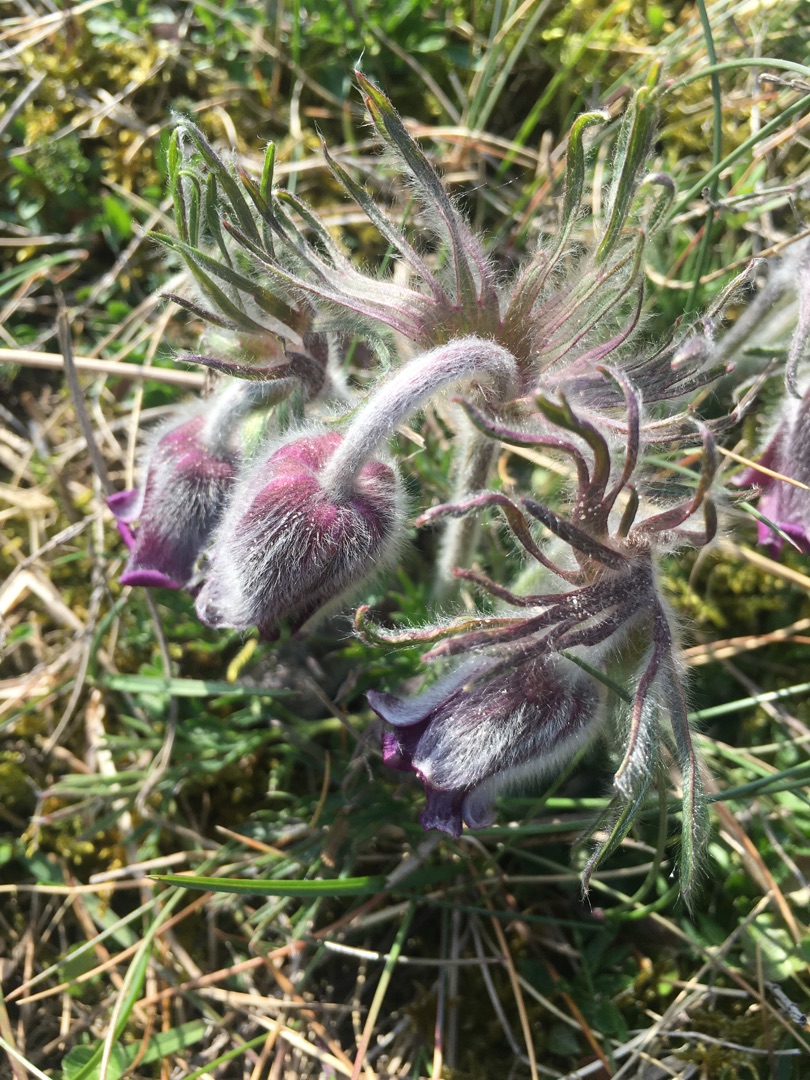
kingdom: Plantae
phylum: Tracheophyta
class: Magnoliopsida
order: Ranunculales
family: Ranunculaceae
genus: Pulsatilla
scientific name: Pulsatilla pratensis
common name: Nikkende kobjælde
